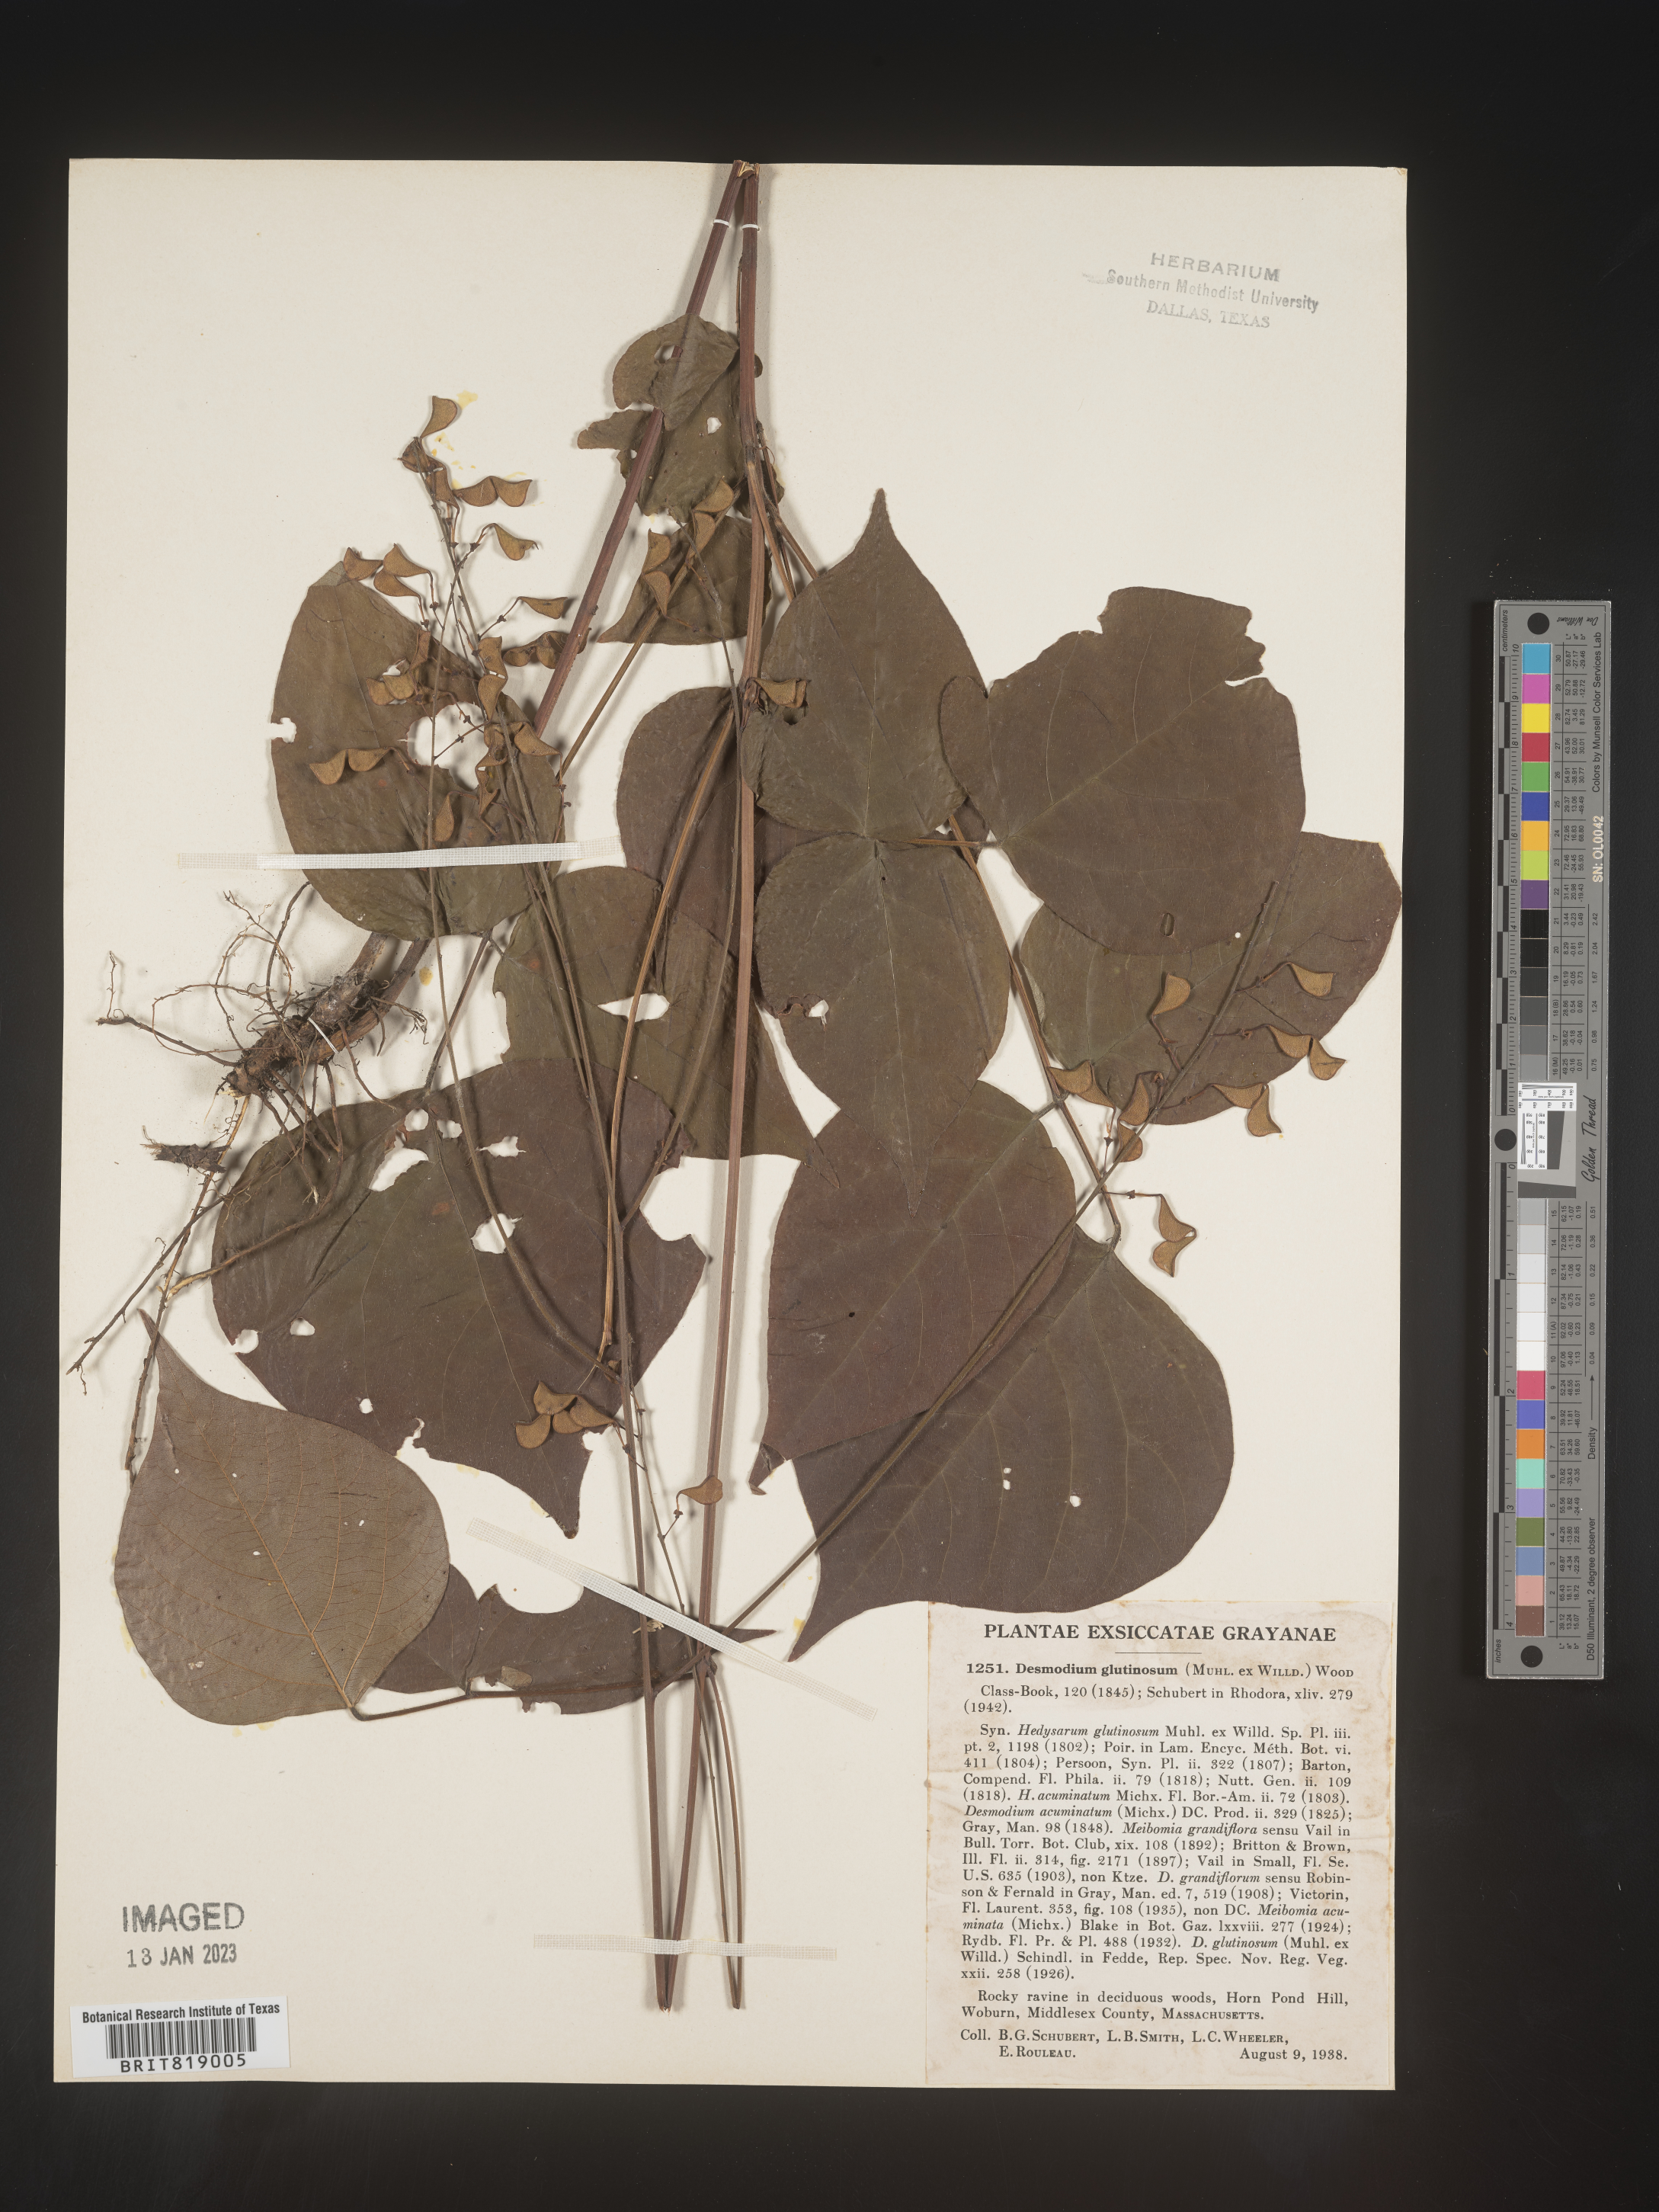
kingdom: Plantae
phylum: Tracheophyta
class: Magnoliopsida
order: Fabales
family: Fabaceae
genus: Hylodesmum
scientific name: Hylodesmum glutinosum
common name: Clustered-leaved tick-trefoil
